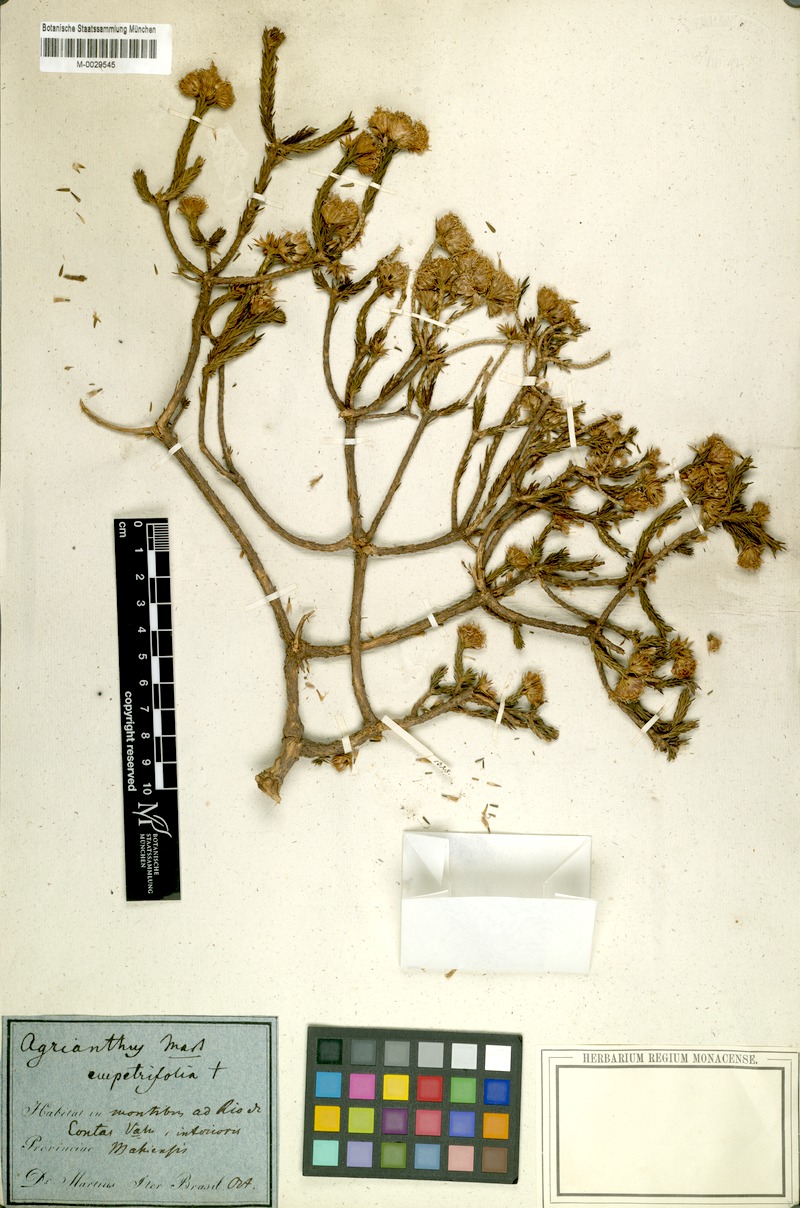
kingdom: Plantae
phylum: Tracheophyta
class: Magnoliopsida
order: Asterales
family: Asteraceae
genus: Agrianthus
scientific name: Agrianthus empetrifolius
